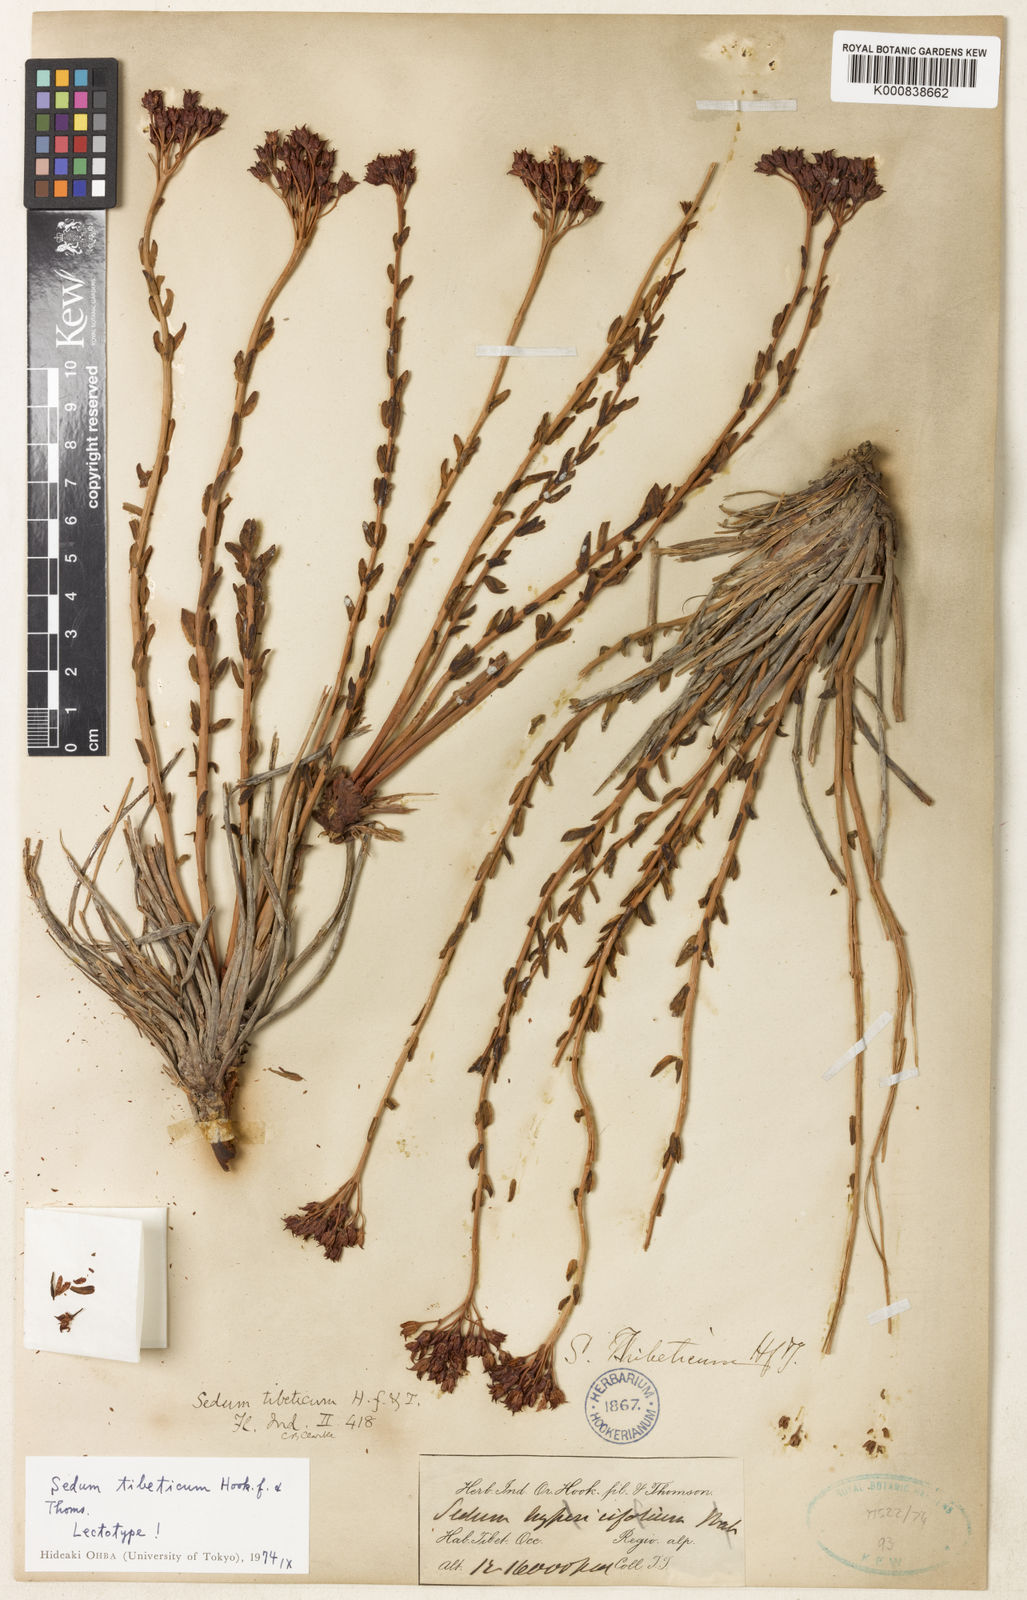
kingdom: Plantae
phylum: Tracheophyta
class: Magnoliopsida
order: Saxifragales
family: Crassulaceae
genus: Rhodiola
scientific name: Rhodiola tibetica
